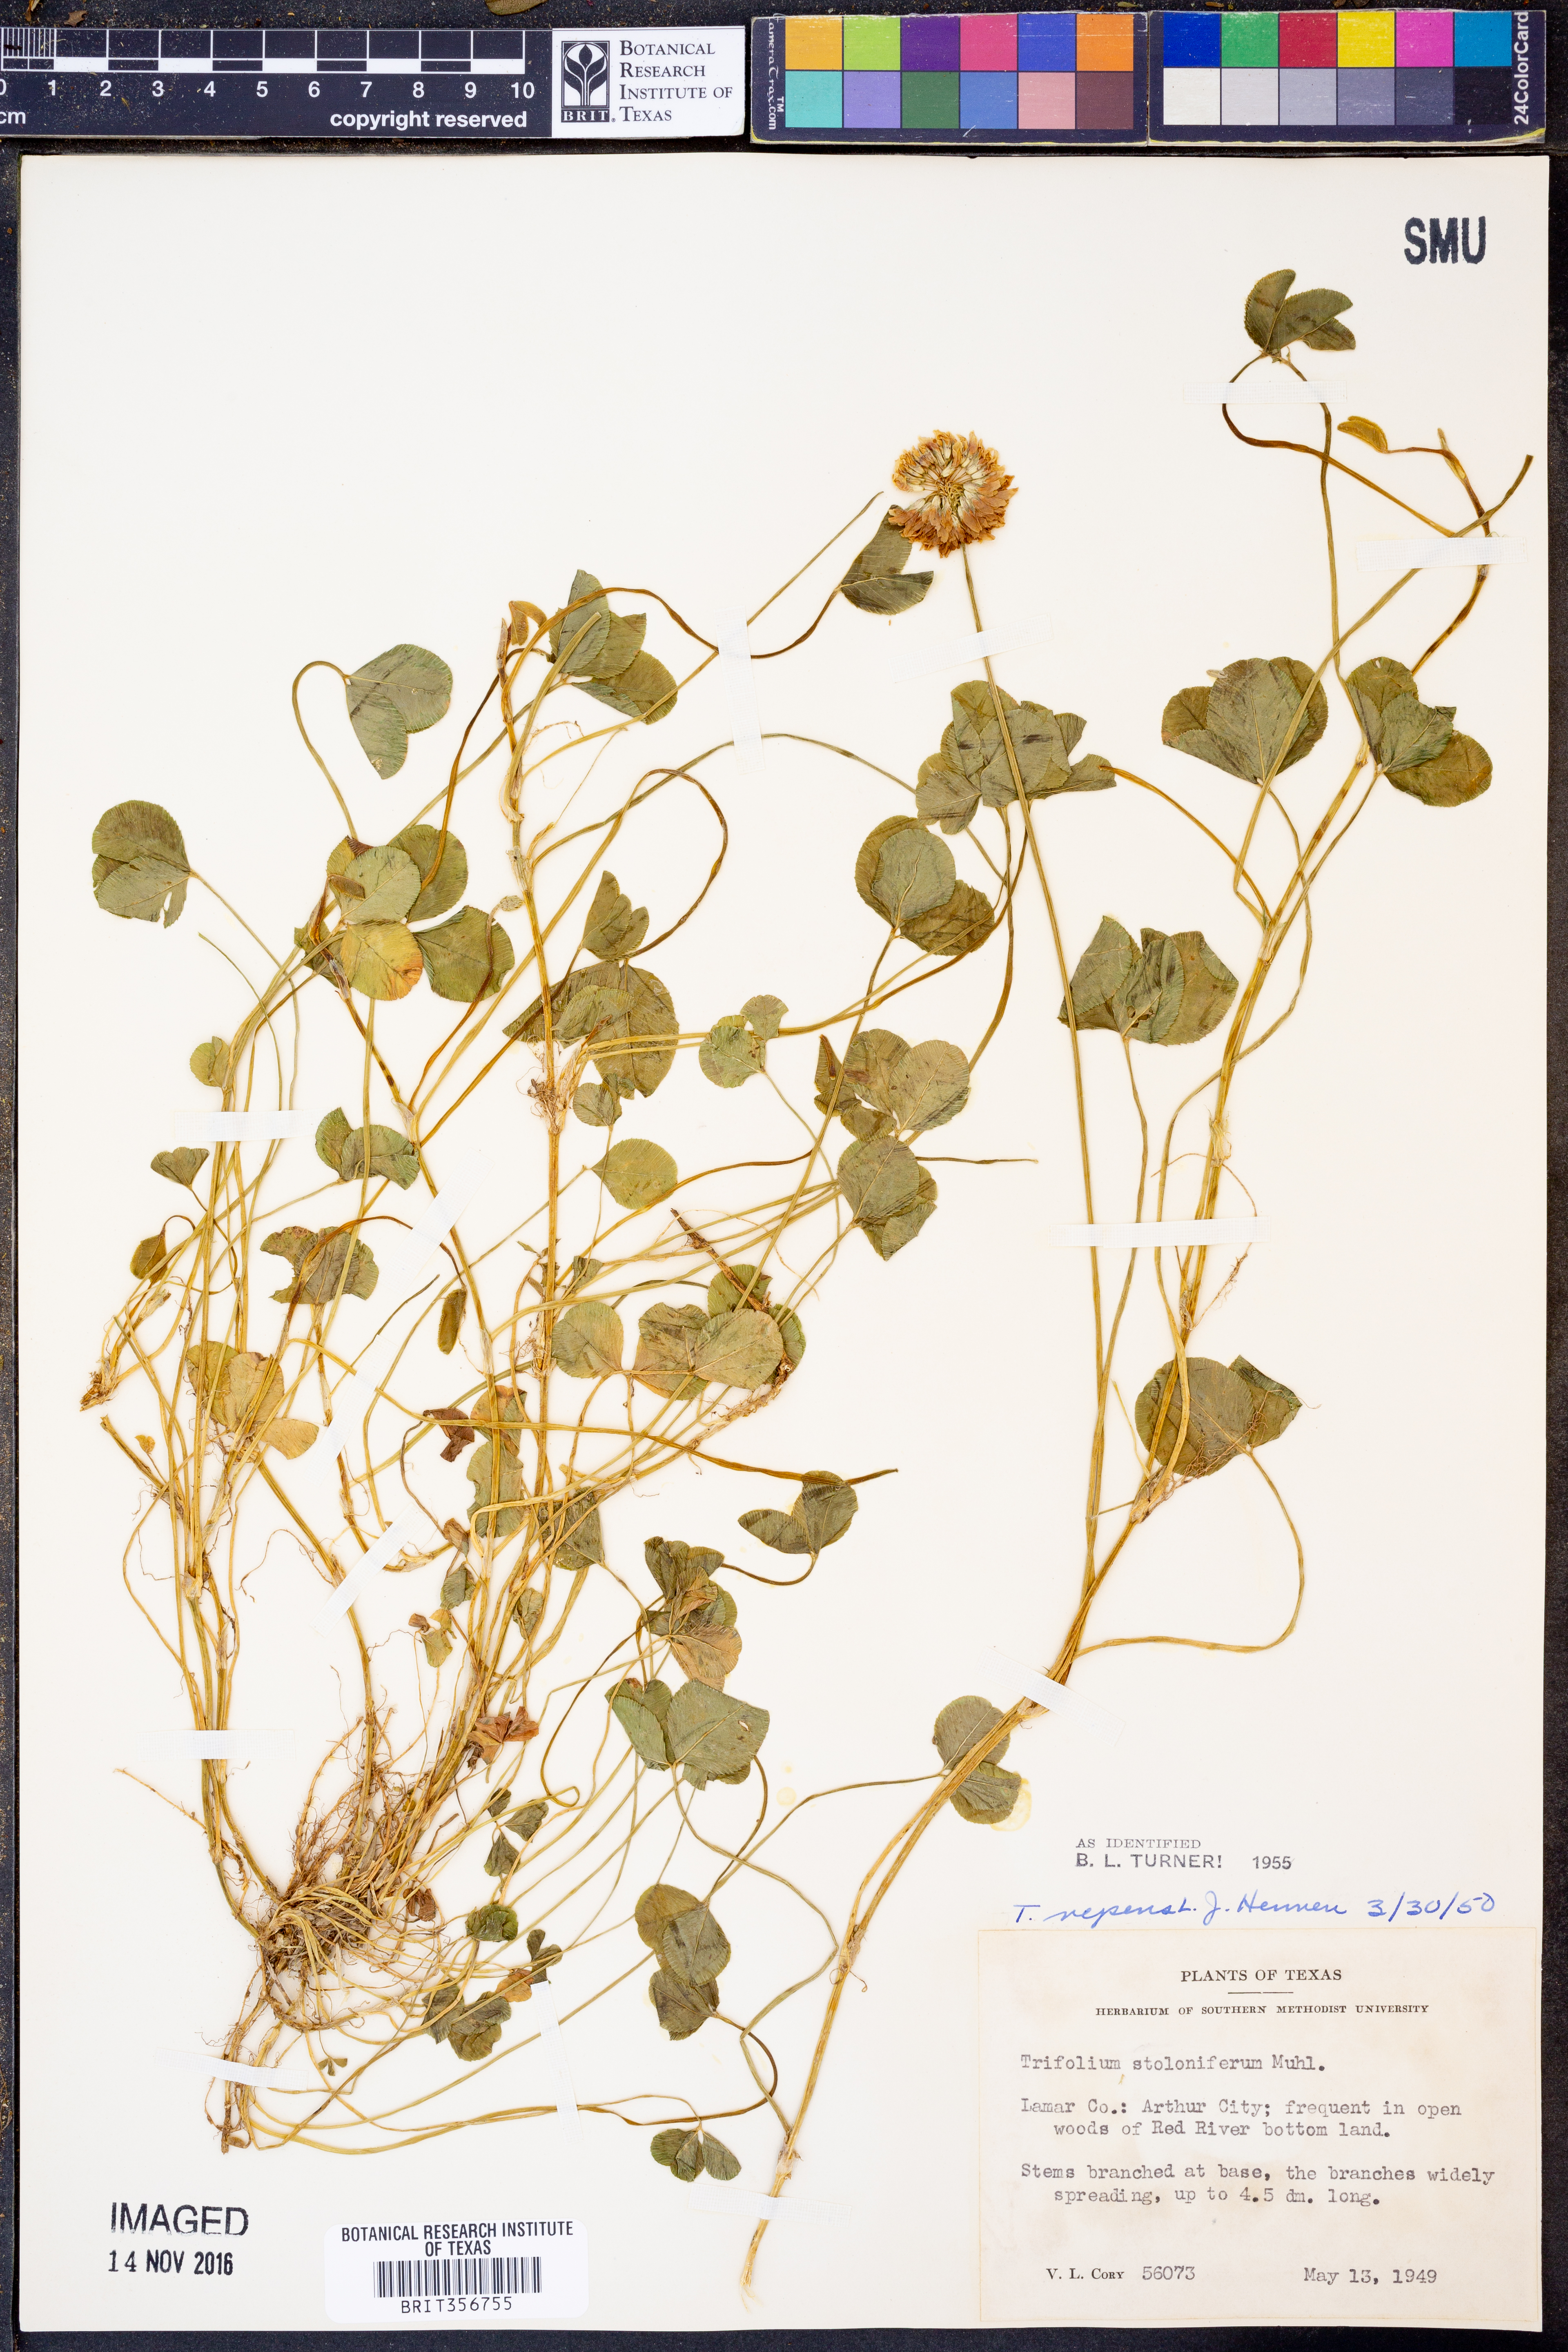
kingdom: Plantae
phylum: Tracheophyta
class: Magnoliopsida
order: Fabales
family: Fabaceae
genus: Trifolium
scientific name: Trifolium repens
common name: White clover
